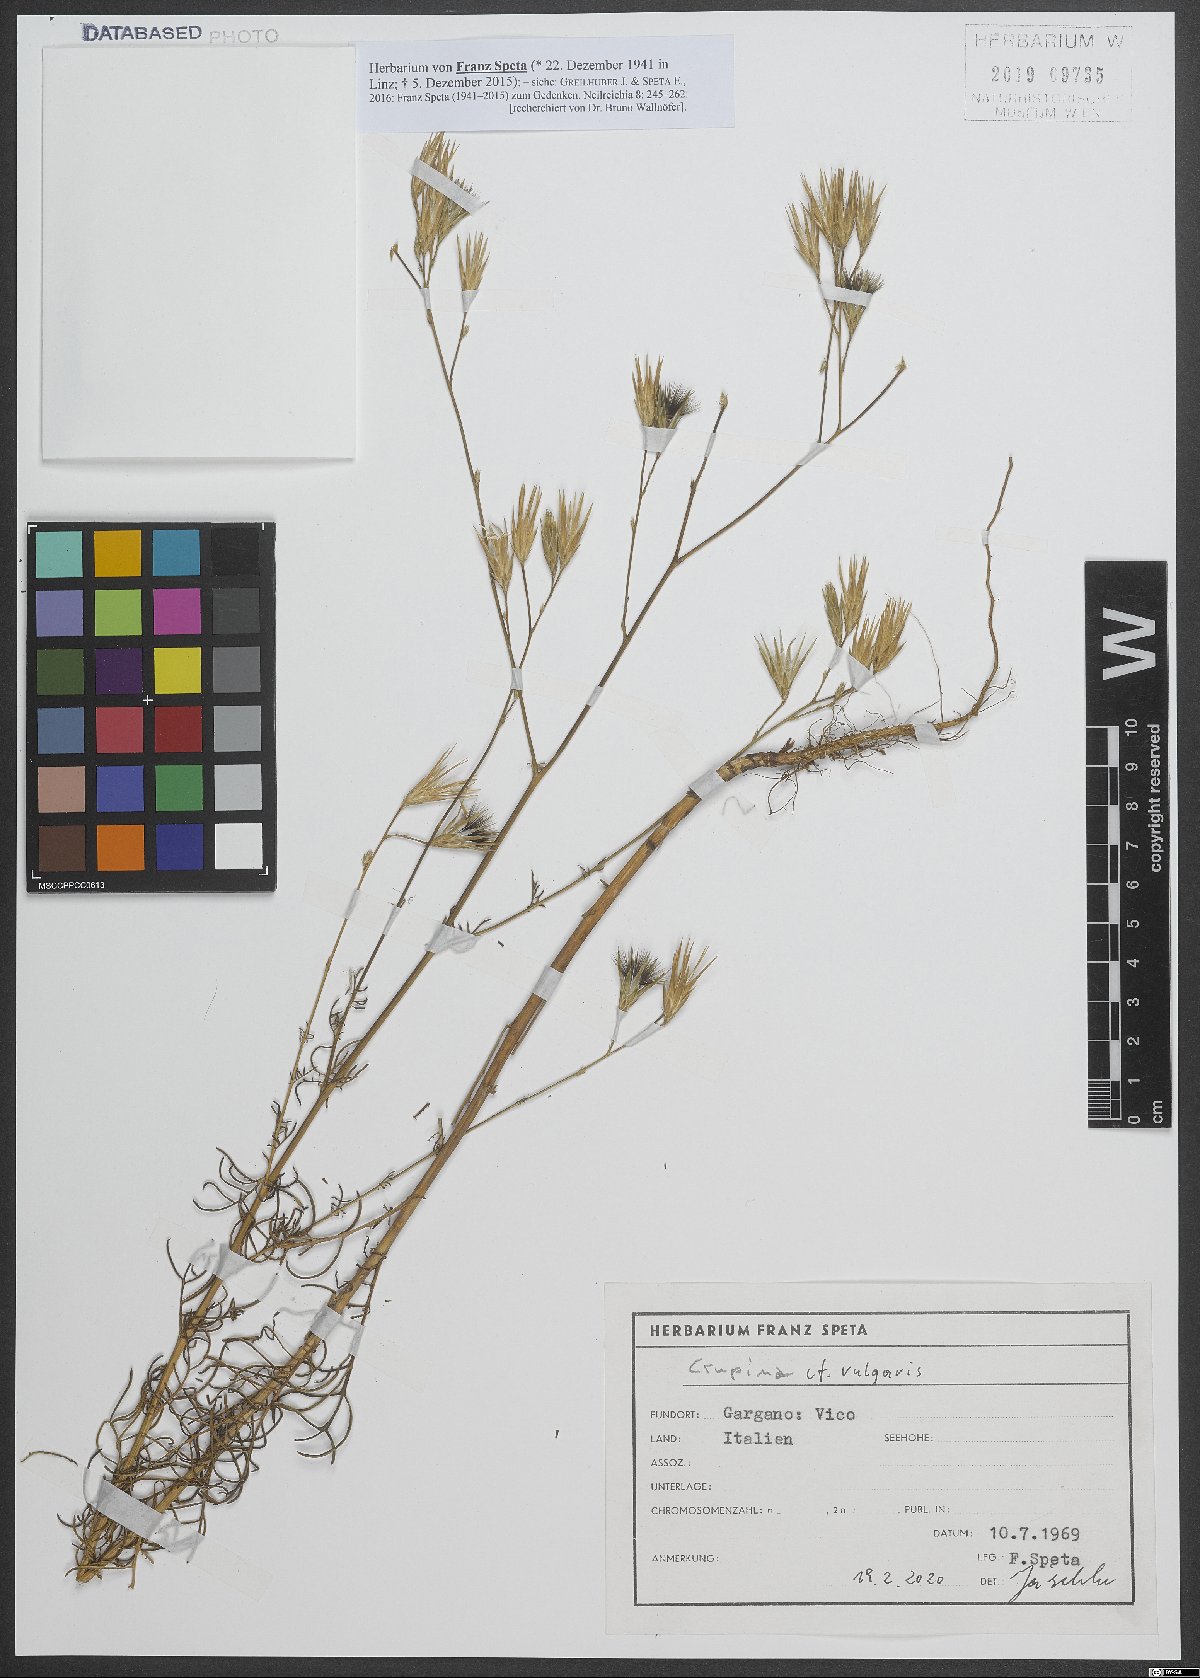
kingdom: Plantae
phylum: Tracheophyta
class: Magnoliopsida
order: Asterales
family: Asteraceae
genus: Crupina
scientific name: Crupina vulgaris
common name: Common crupina
